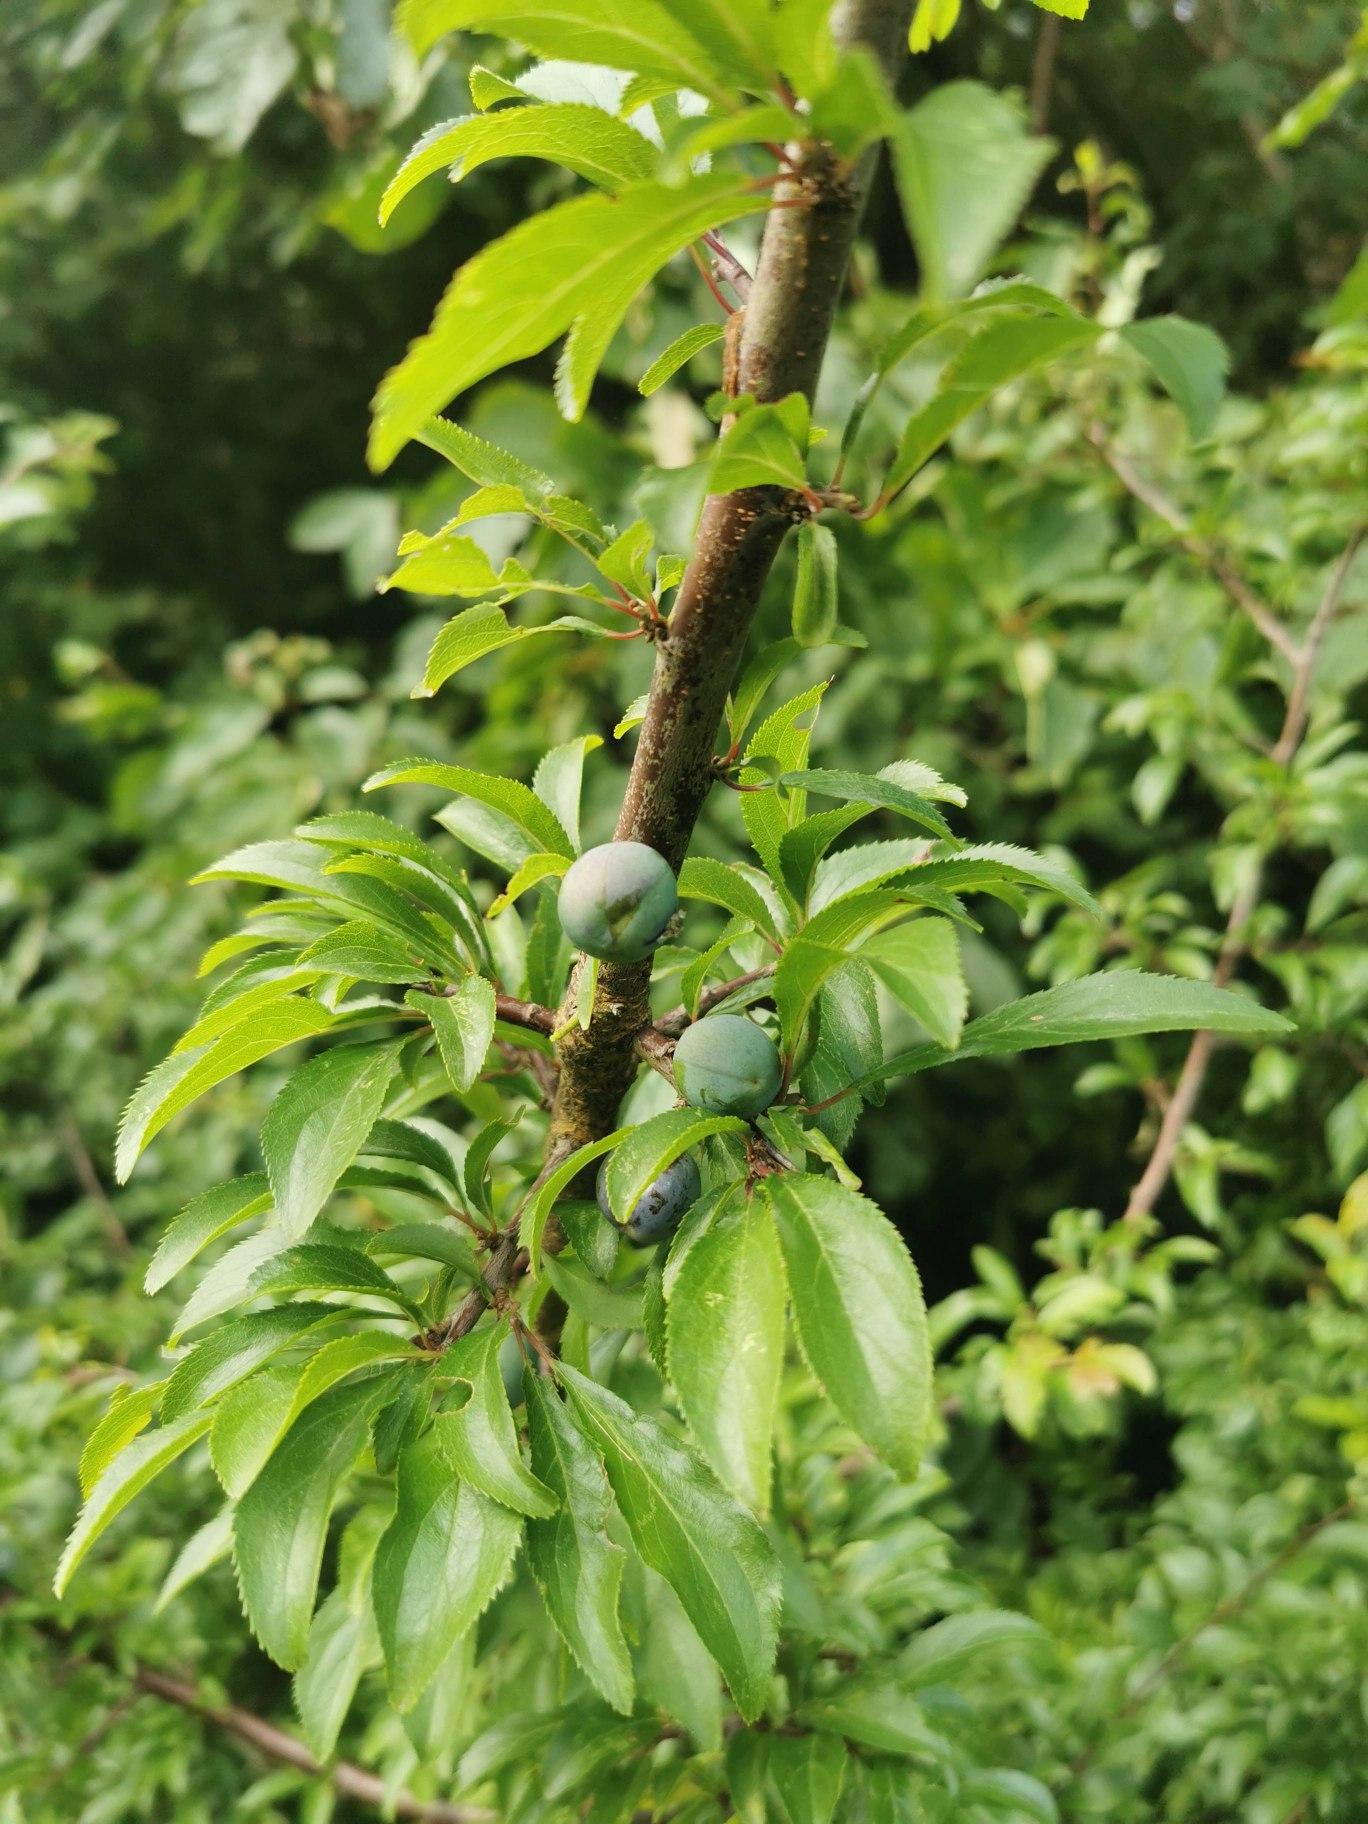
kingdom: Plantae
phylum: Tracheophyta
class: Magnoliopsida
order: Rosales
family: Rosaceae
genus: Prunus
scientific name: Prunus spinosa
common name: Slåen
